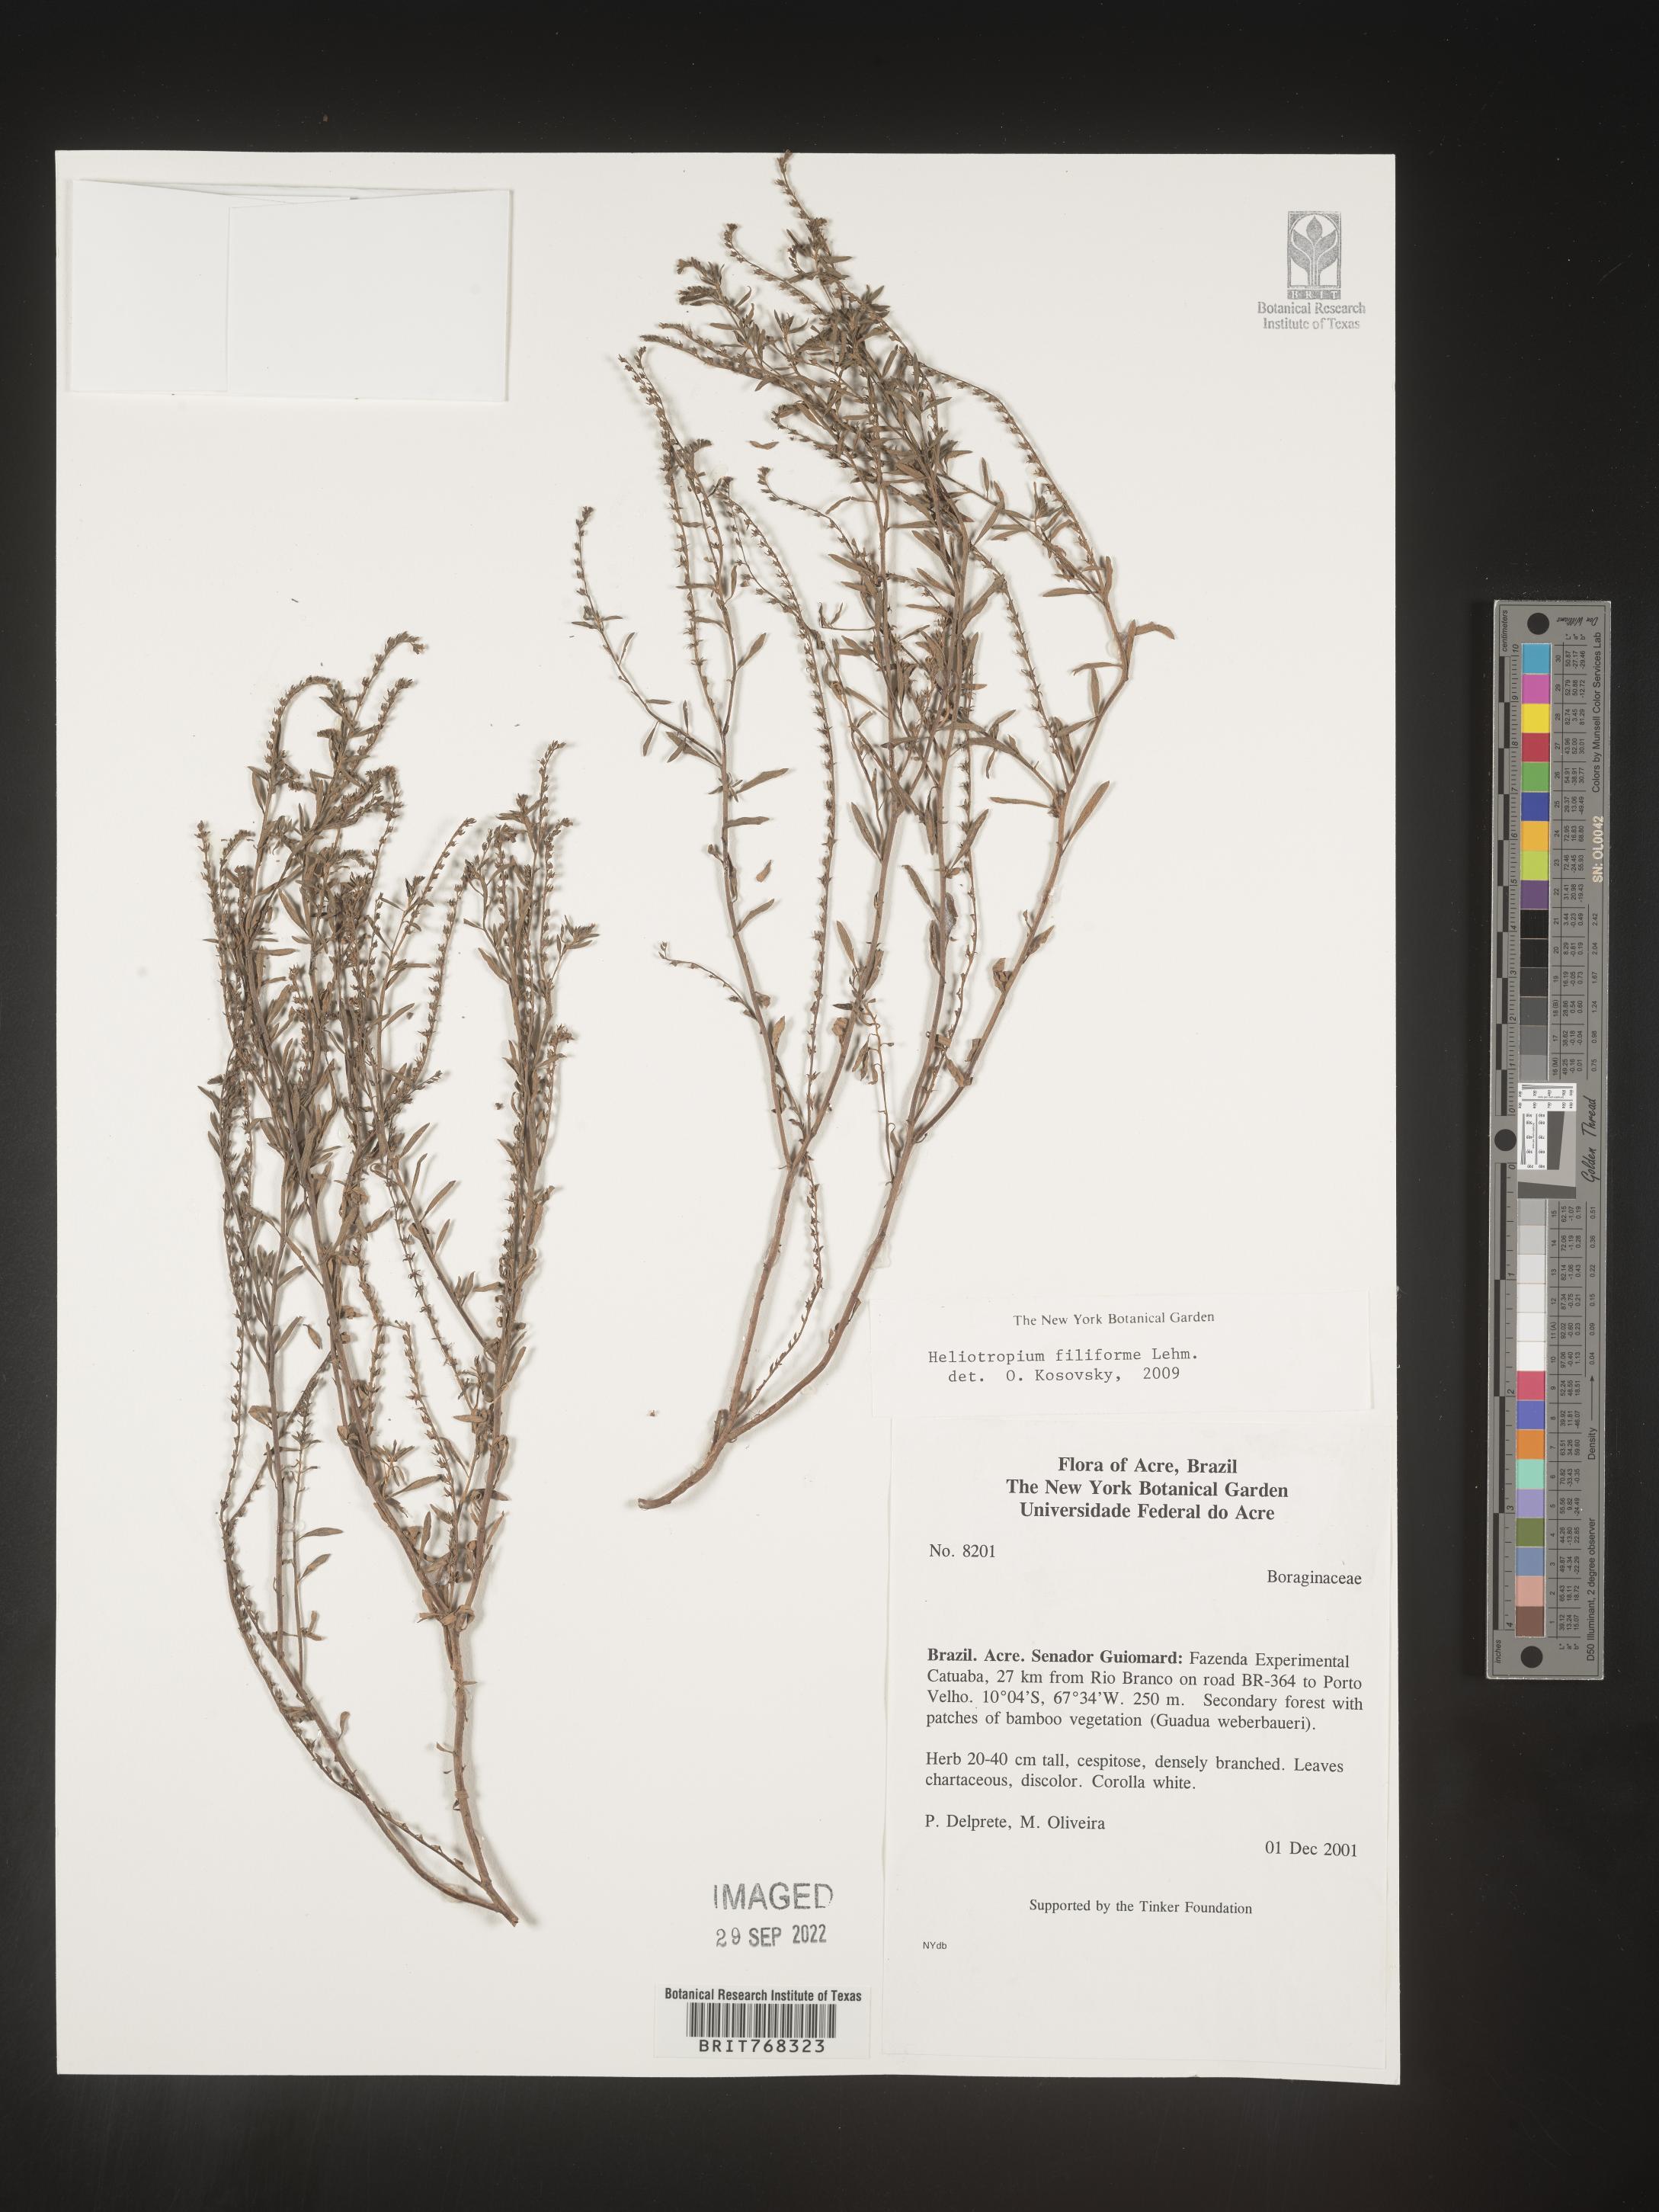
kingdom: Plantae
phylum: Tracheophyta
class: Magnoliopsida
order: Boraginales
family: Heliotropiaceae
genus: Heliotropium
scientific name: Heliotropium
